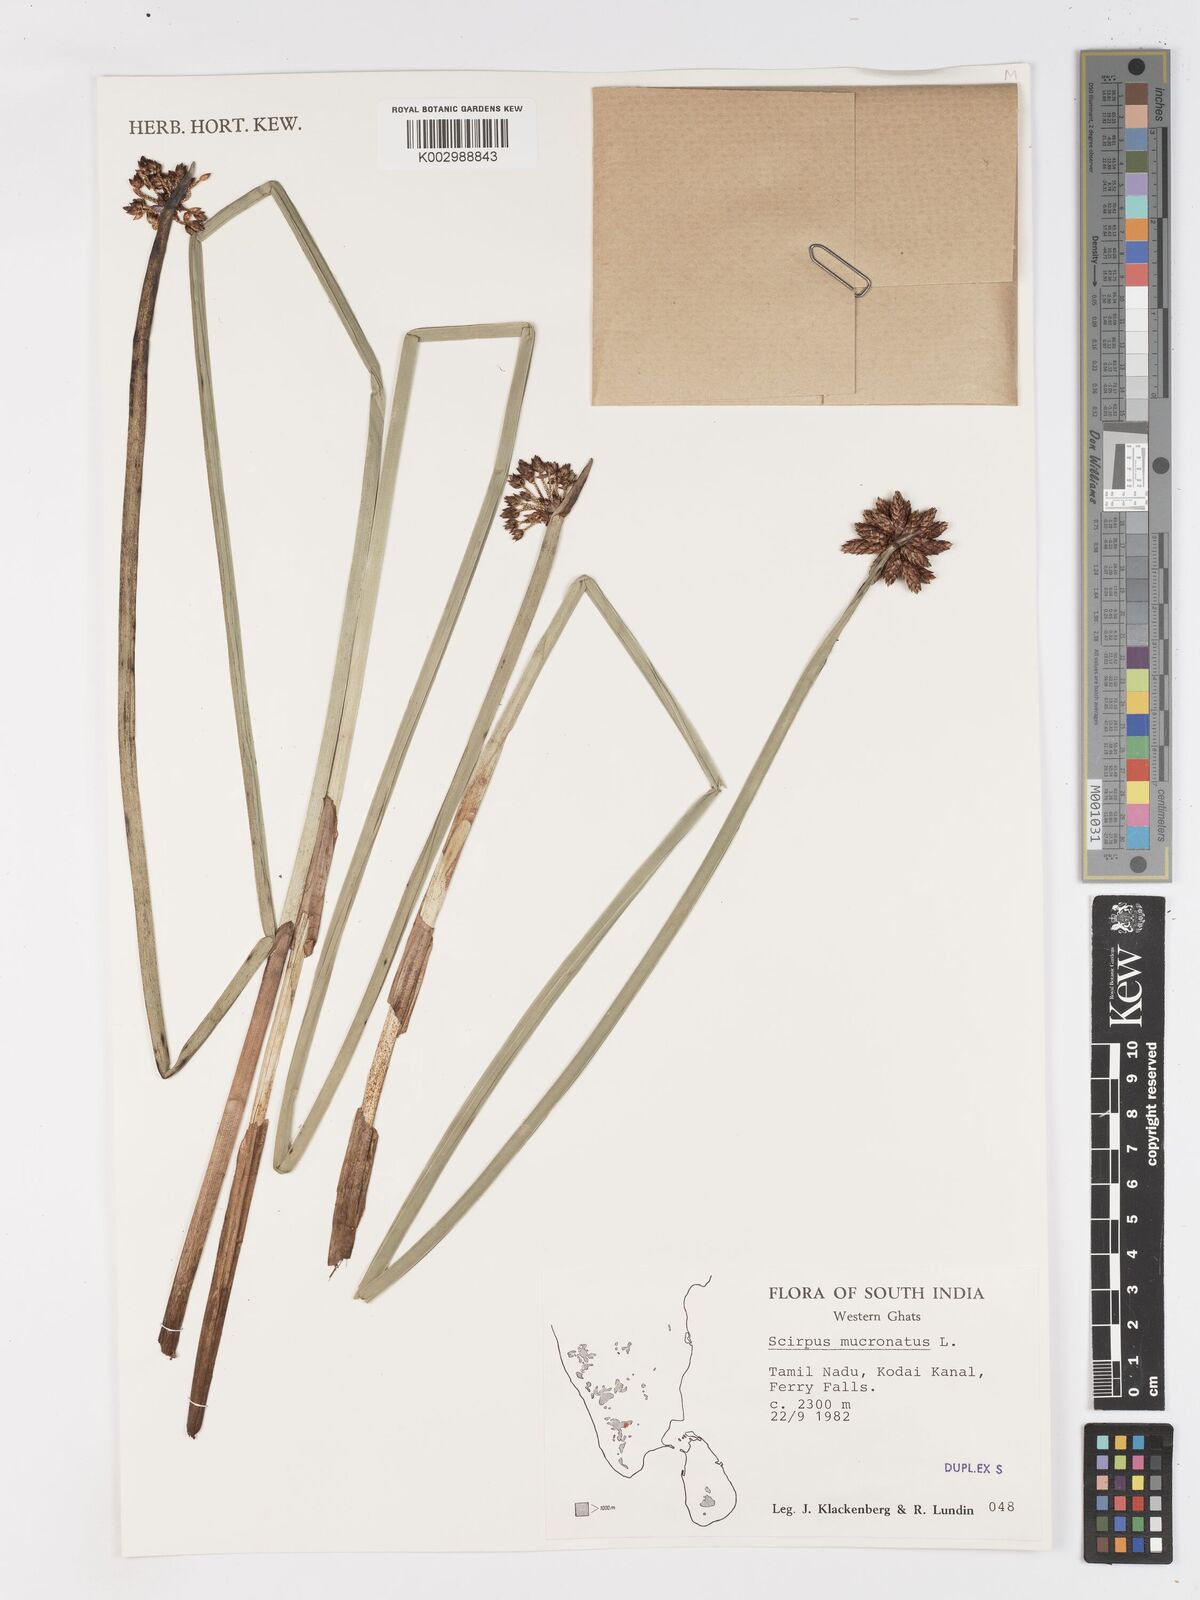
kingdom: Plantae
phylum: Tracheophyta
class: Liliopsida
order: Poales
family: Cyperaceae
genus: Schoenoplectiella
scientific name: Schoenoplectiella mucronata
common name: Bog bulrush
